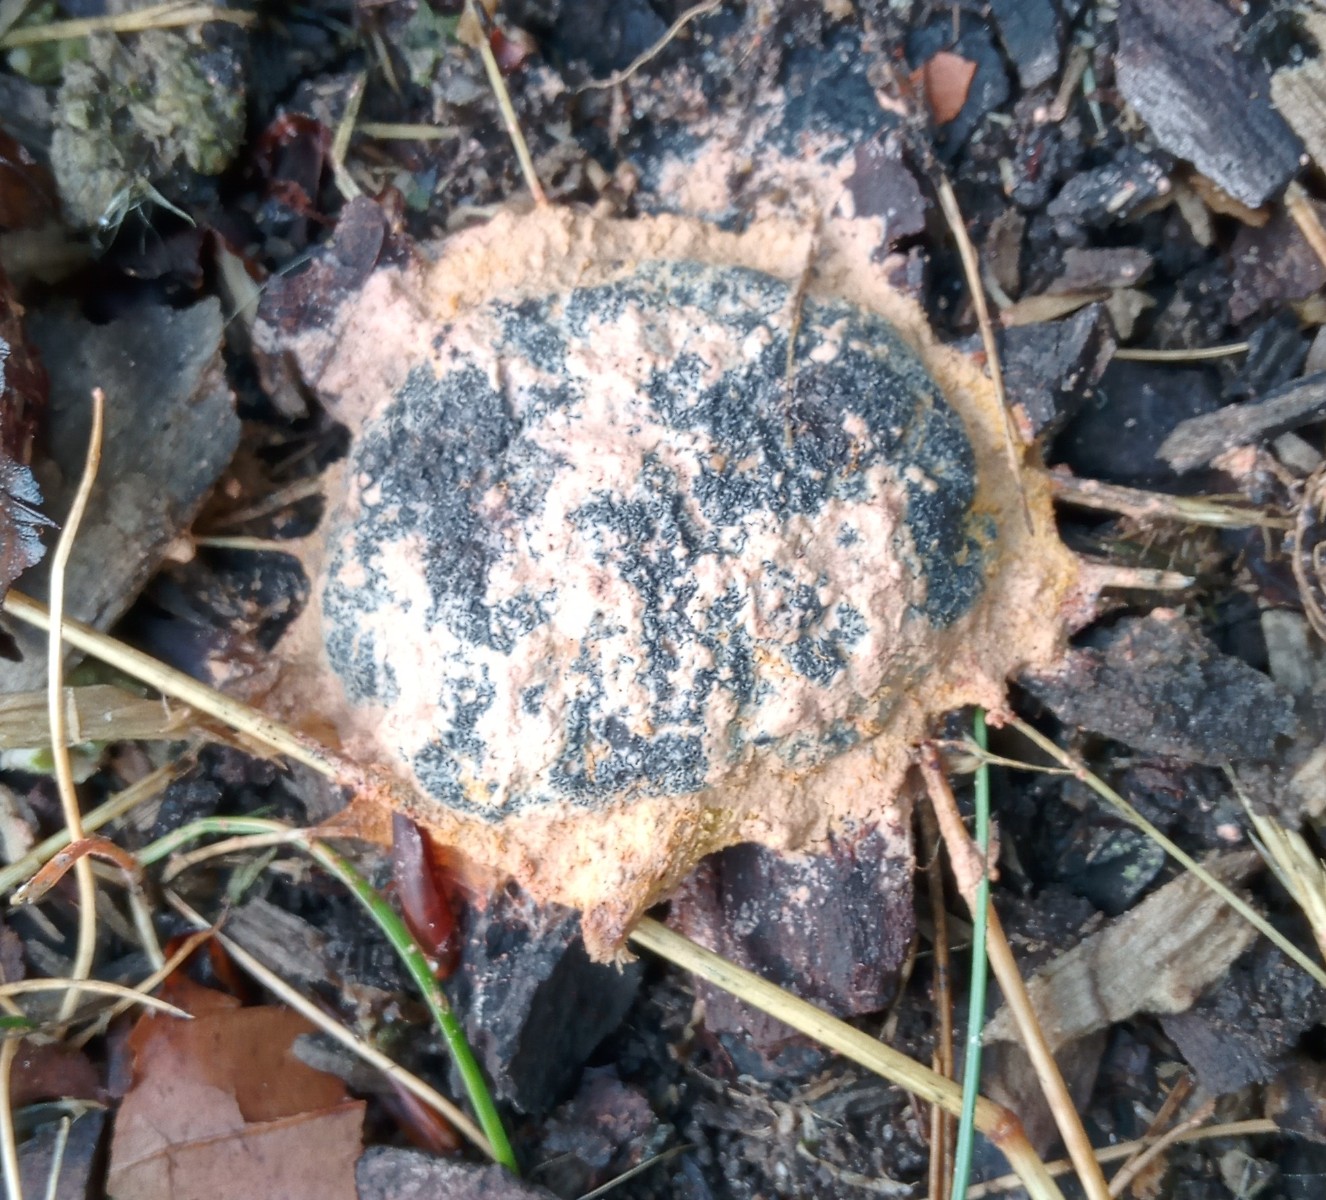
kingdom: Protozoa
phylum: Mycetozoa
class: Myxomycetes
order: Physarales
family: Physaraceae
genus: Fuligo
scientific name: Fuligo septica
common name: Dog vomit slime mold
